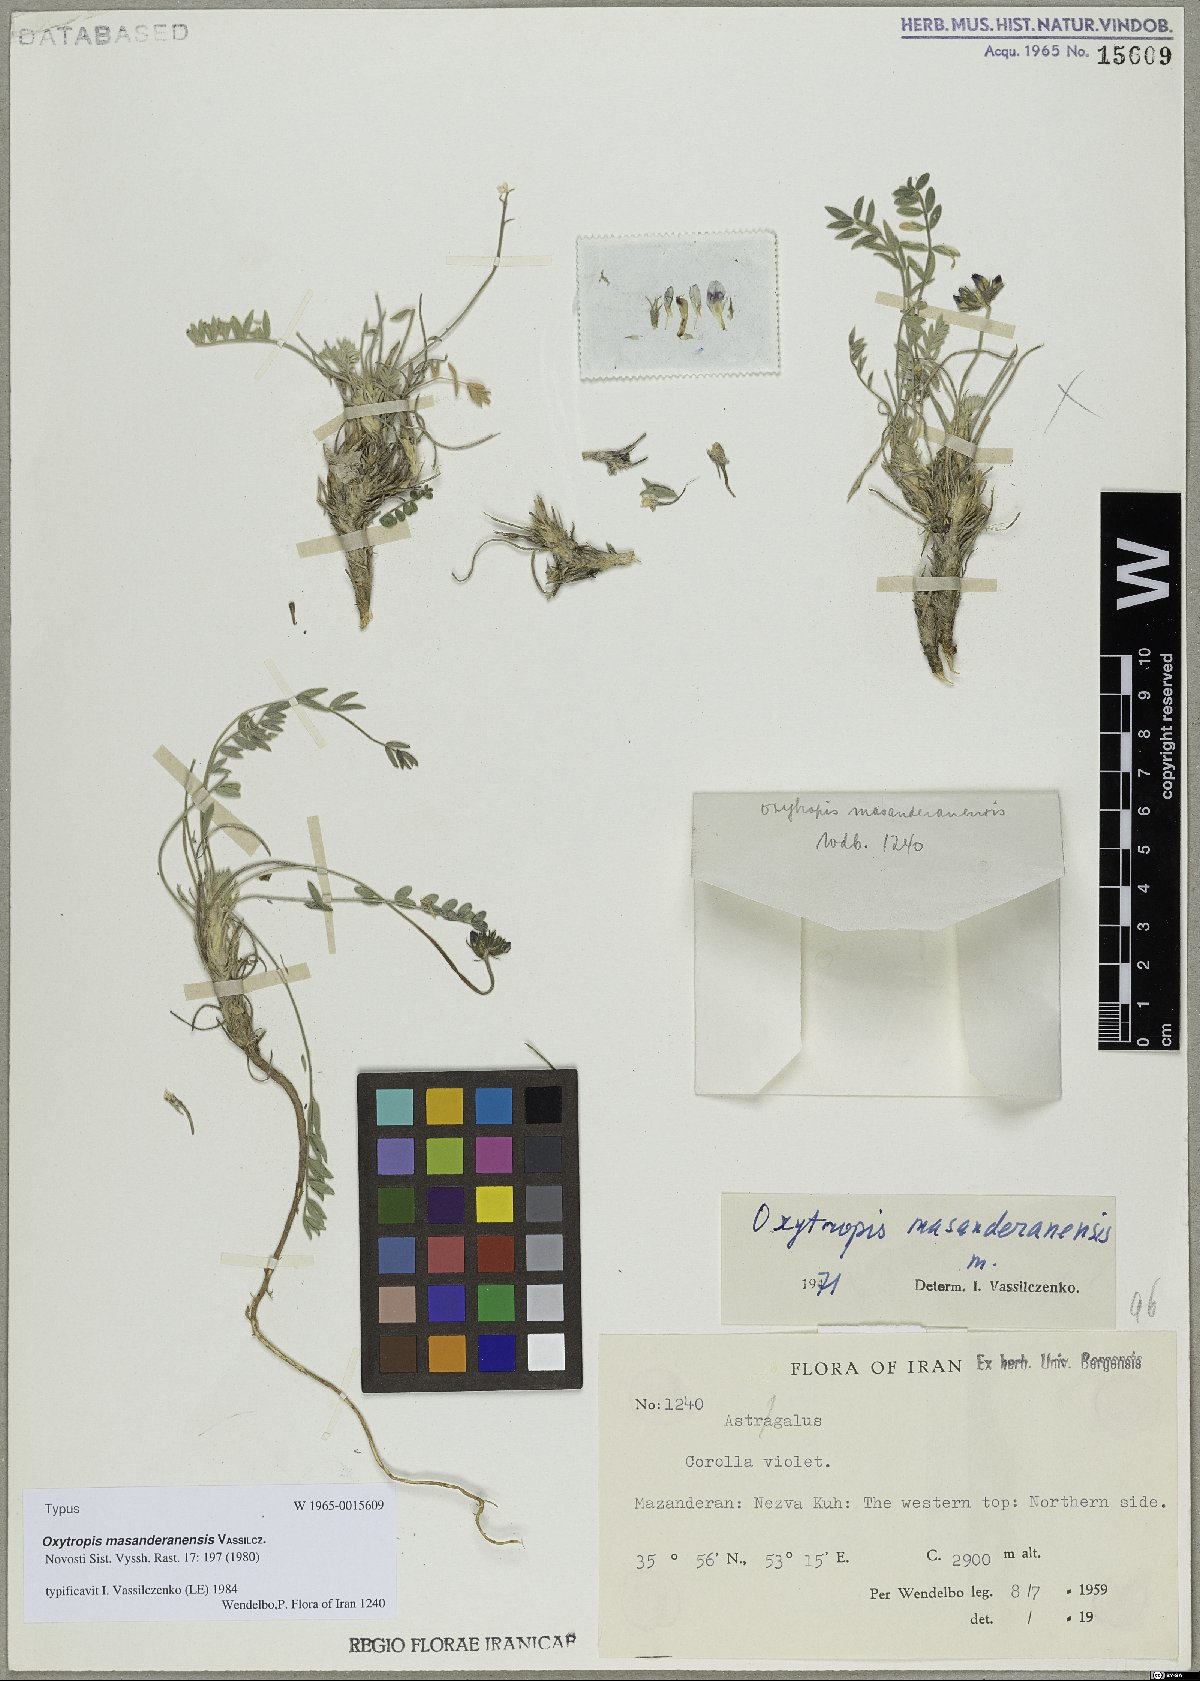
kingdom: Plantae
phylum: Tracheophyta
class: Magnoliopsida
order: Fabales
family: Fabaceae
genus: Oxytropis
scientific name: Oxytropis aucheri
